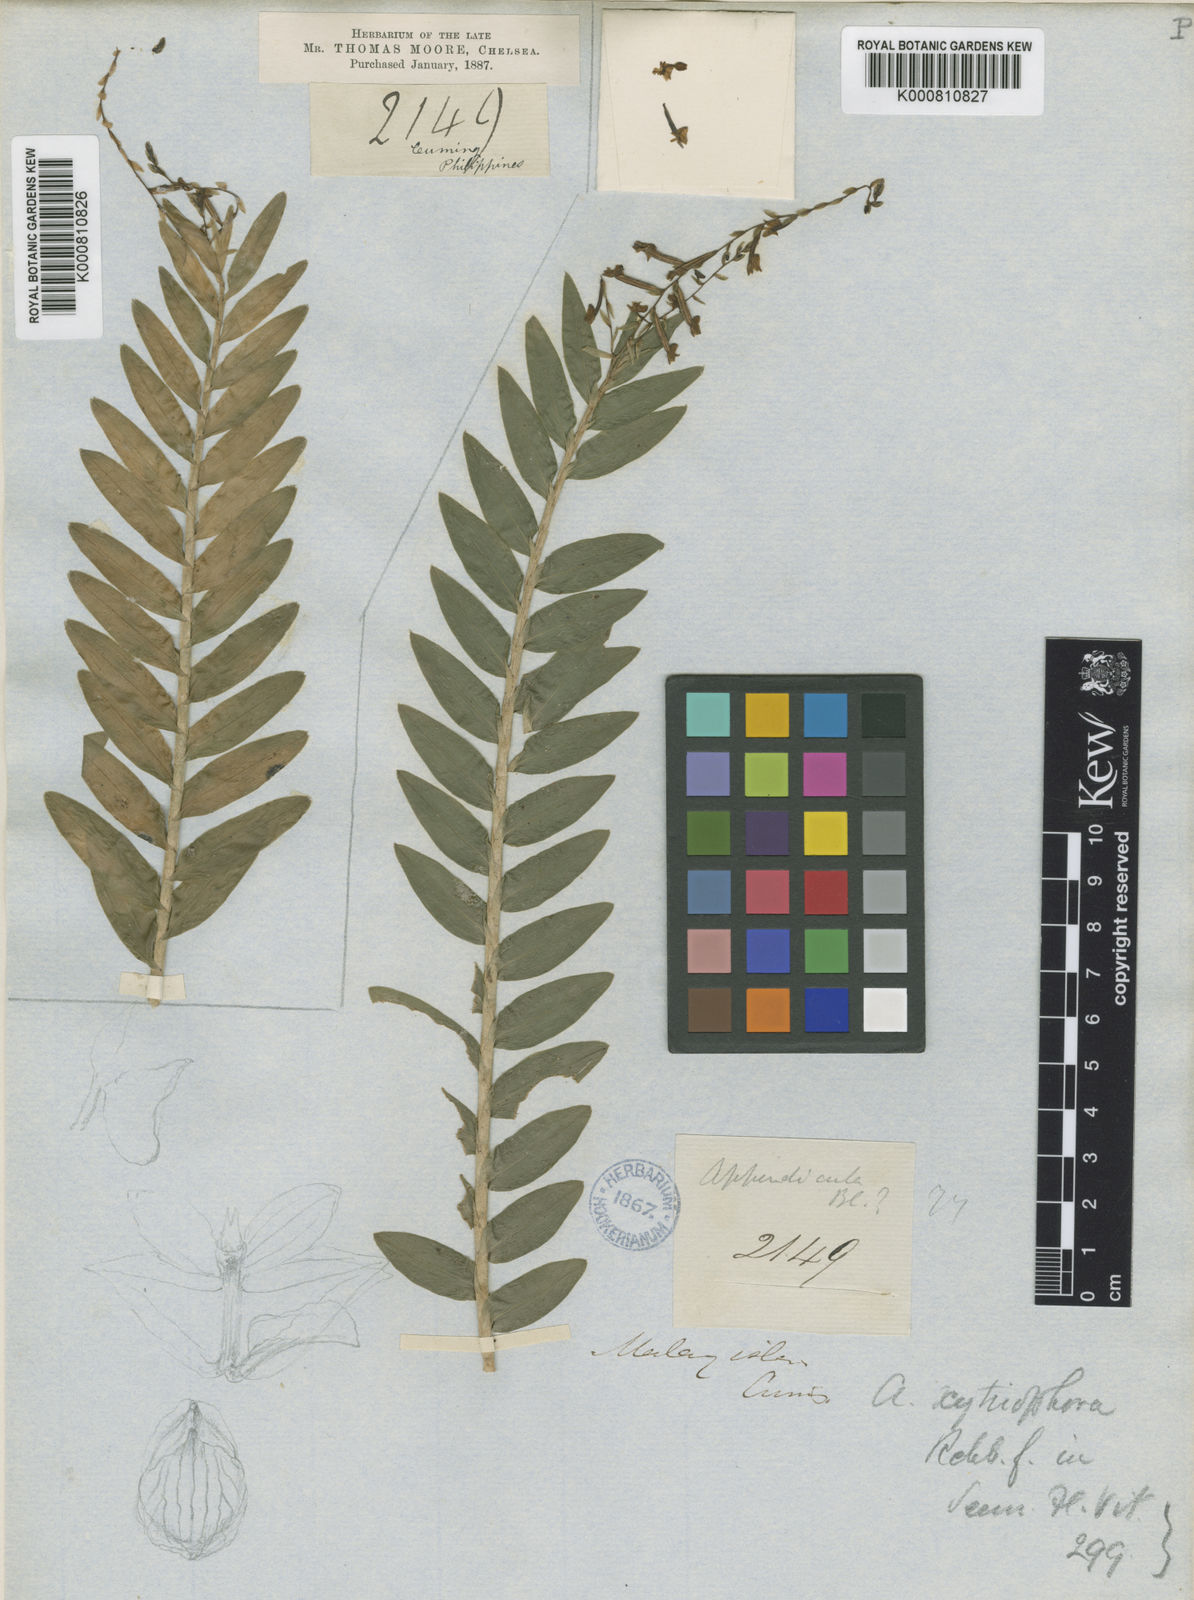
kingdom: Plantae
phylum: Tracheophyta
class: Liliopsida
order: Asparagales
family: Orchidaceae
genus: Appendicula
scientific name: Appendicula xytriophora
